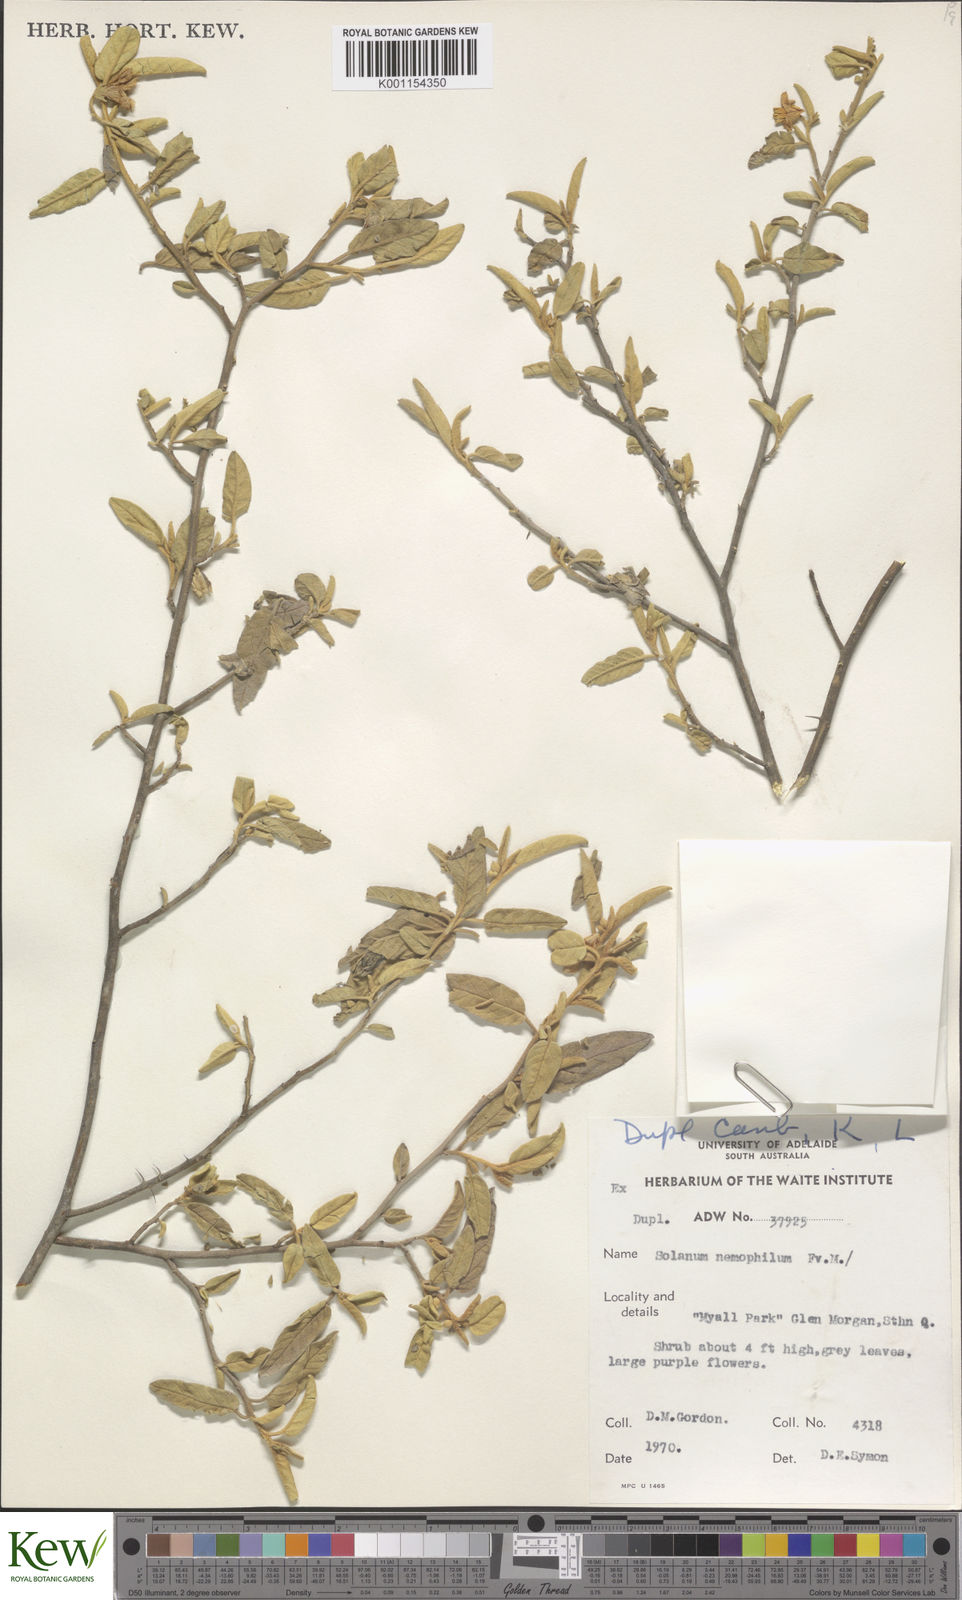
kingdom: Plantae
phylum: Tracheophyta
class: Magnoliopsida
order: Solanales
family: Solanaceae
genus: Solanum
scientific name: Solanum nemophilum
